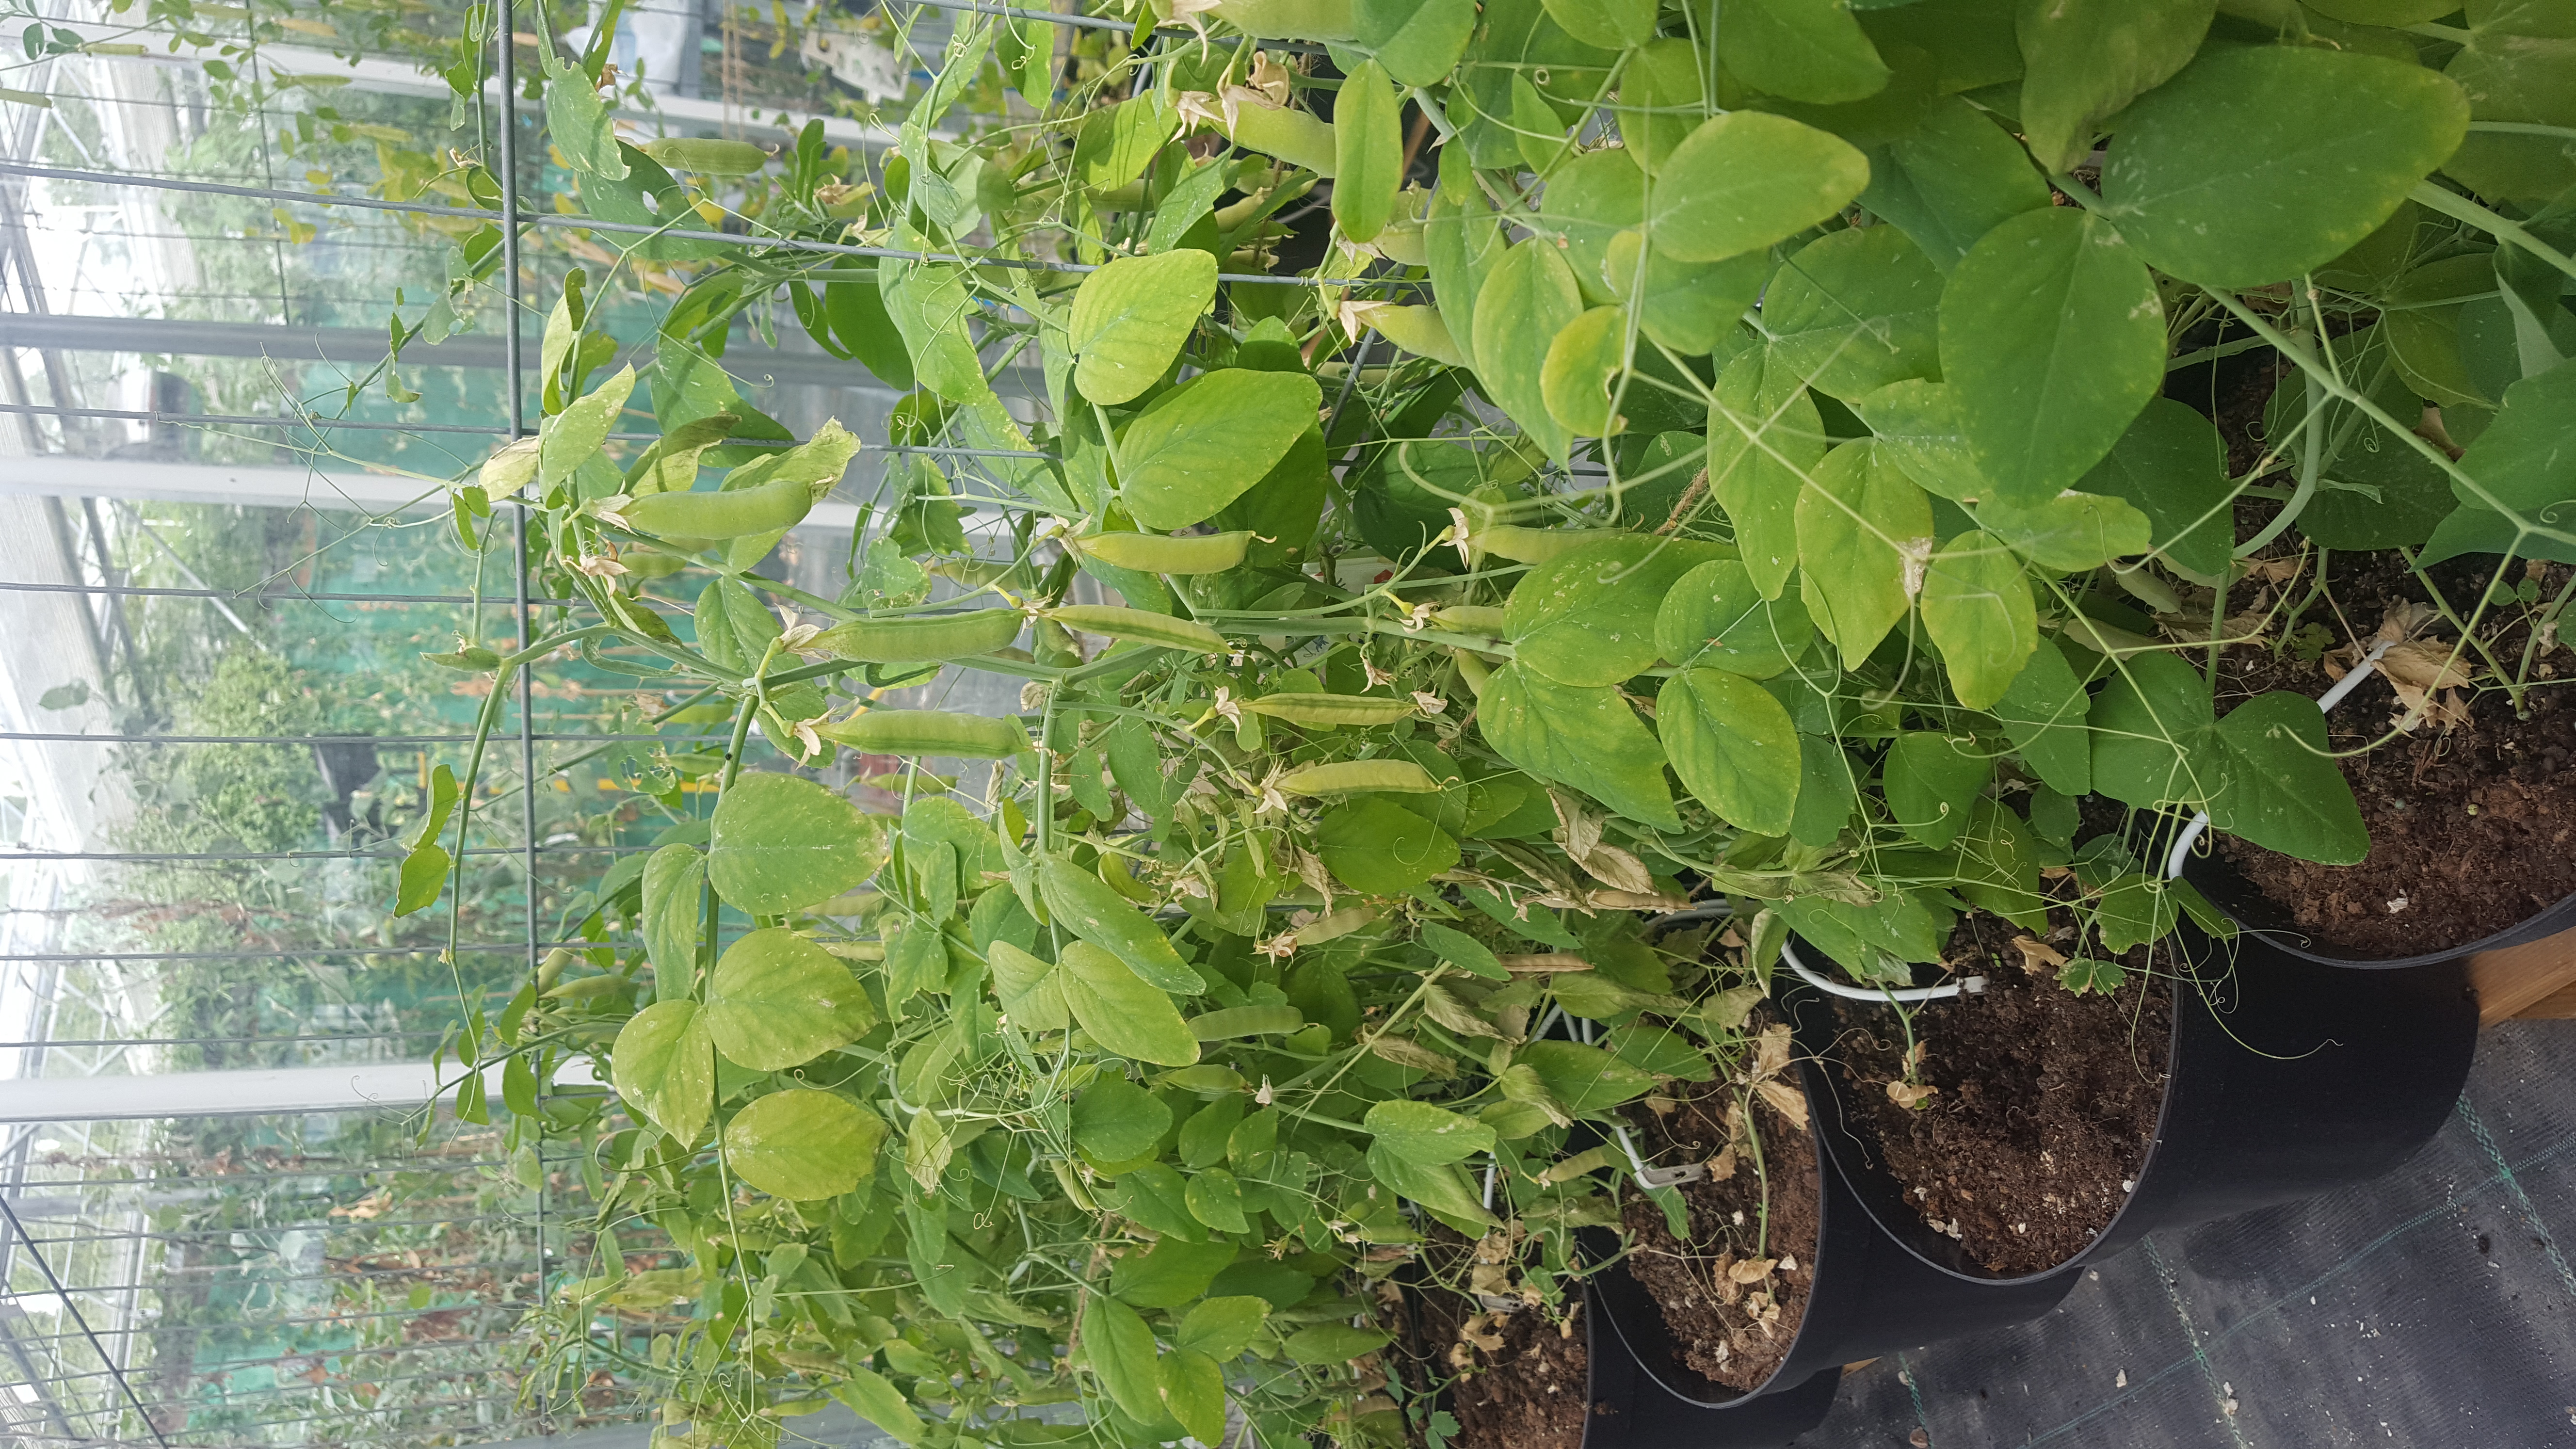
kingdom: Plantae
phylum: Tracheophyta
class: Magnoliopsida
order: Fabales
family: Fabaceae
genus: Lathyrus
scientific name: Lathyrus oleraceus
